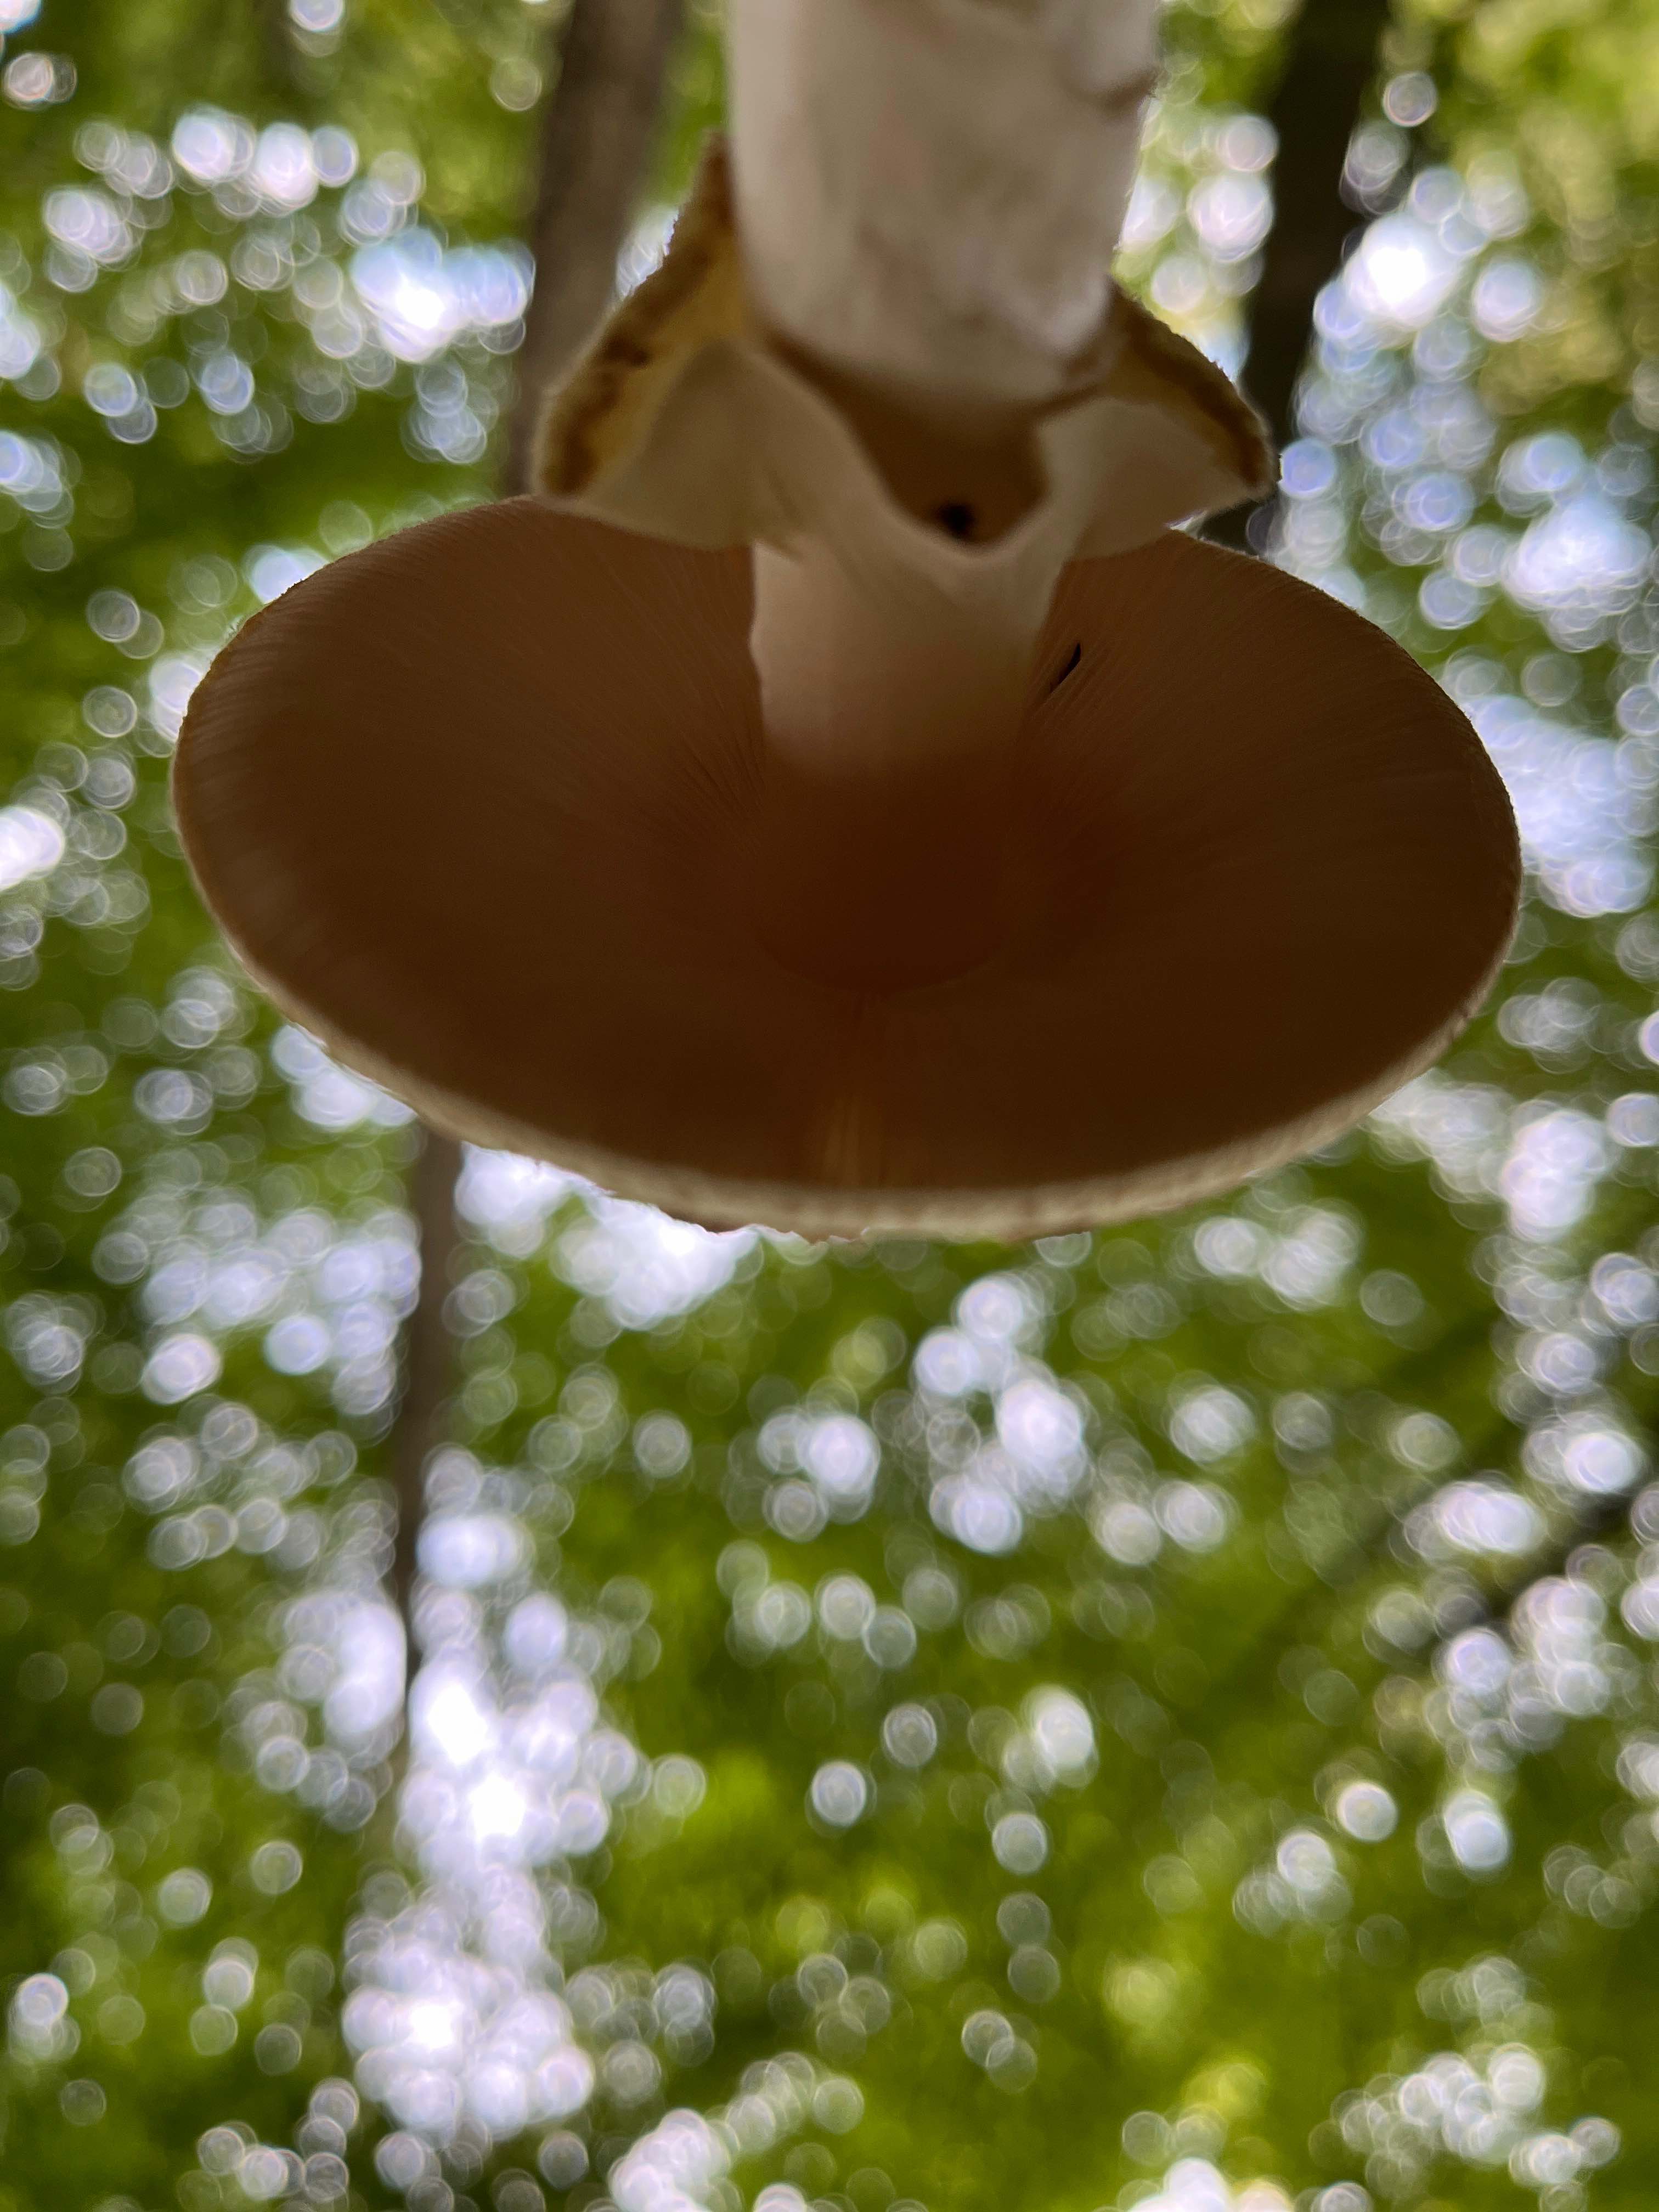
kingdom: Fungi
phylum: Basidiomycota
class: Agaricomycetes
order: Agaricales
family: Amanitaceae
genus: Amanita
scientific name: Amanita citrina
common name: kugleknoldet fluesvamp
